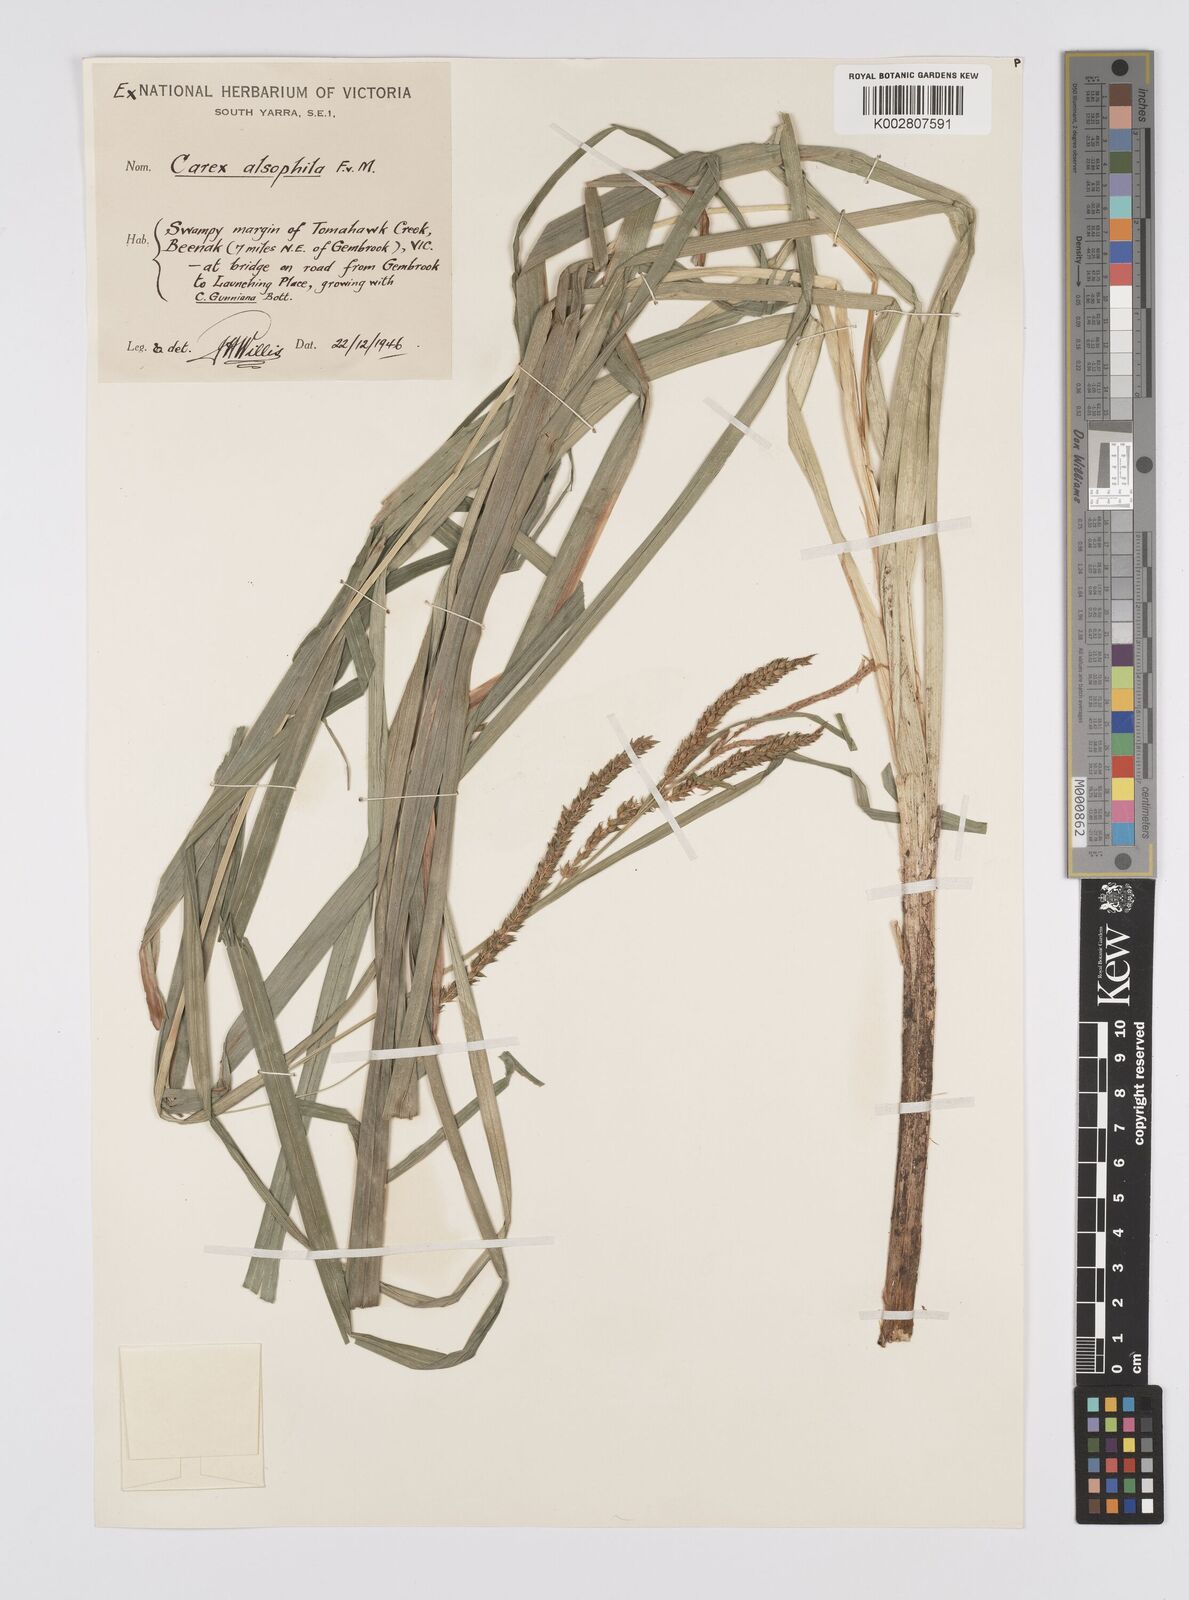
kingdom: Plantae
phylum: Tracheophyta
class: Liliopsida
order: Poales
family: Cyperaceae
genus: Carex
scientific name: Carex alsophila
